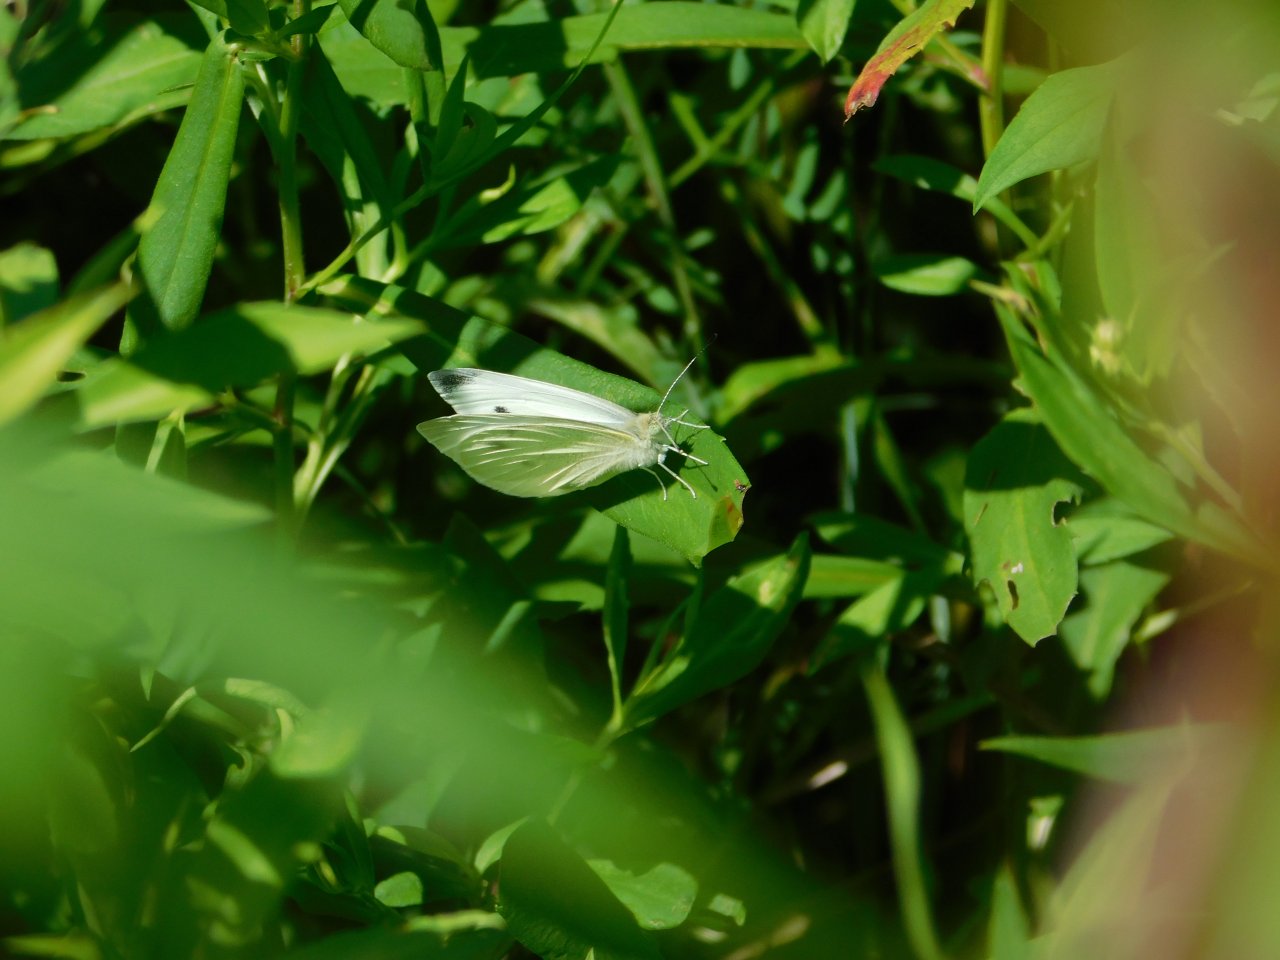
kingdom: Animalia
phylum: Arthropoda
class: Insecta
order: Lepidoptera
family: Pieridae
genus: Pieris
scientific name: Pieris rapae
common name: Cabbage White
